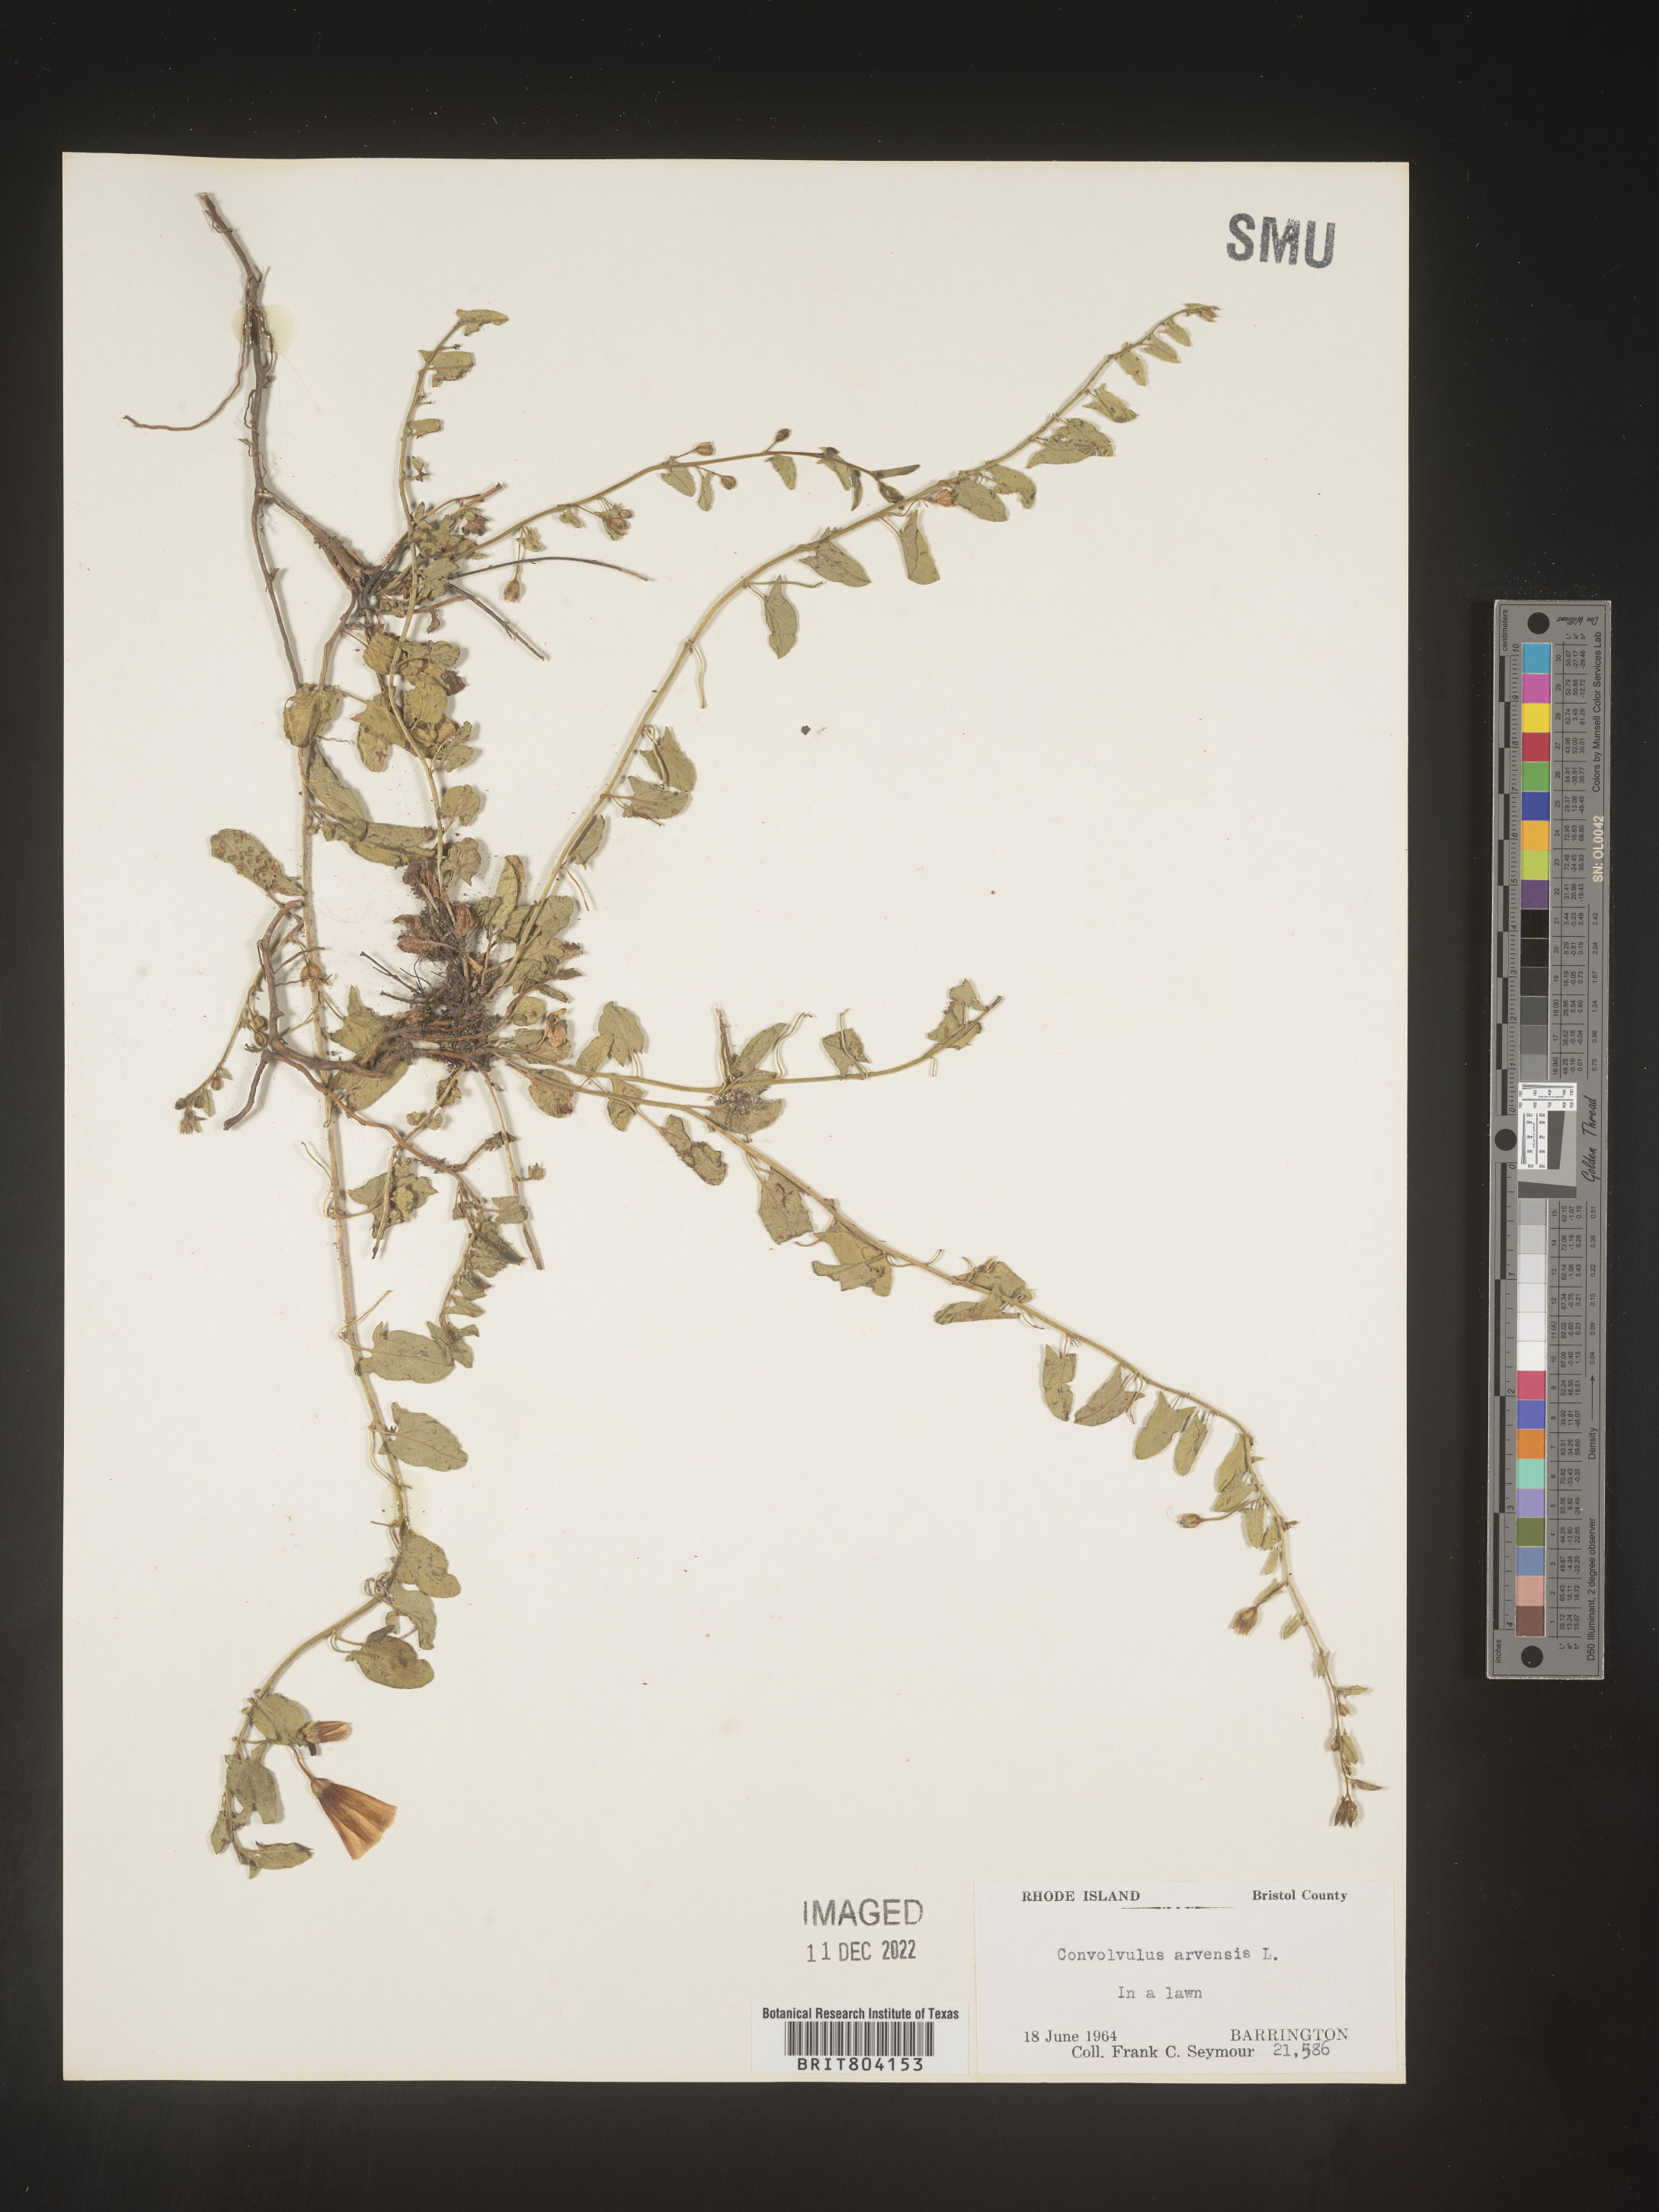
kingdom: Plantae
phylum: Tracheophyta
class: Magnoliopsida
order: Solanales
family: Convolvulaceae
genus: Convolvulus
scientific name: Convolvulus arvensis
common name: Field bindweed
